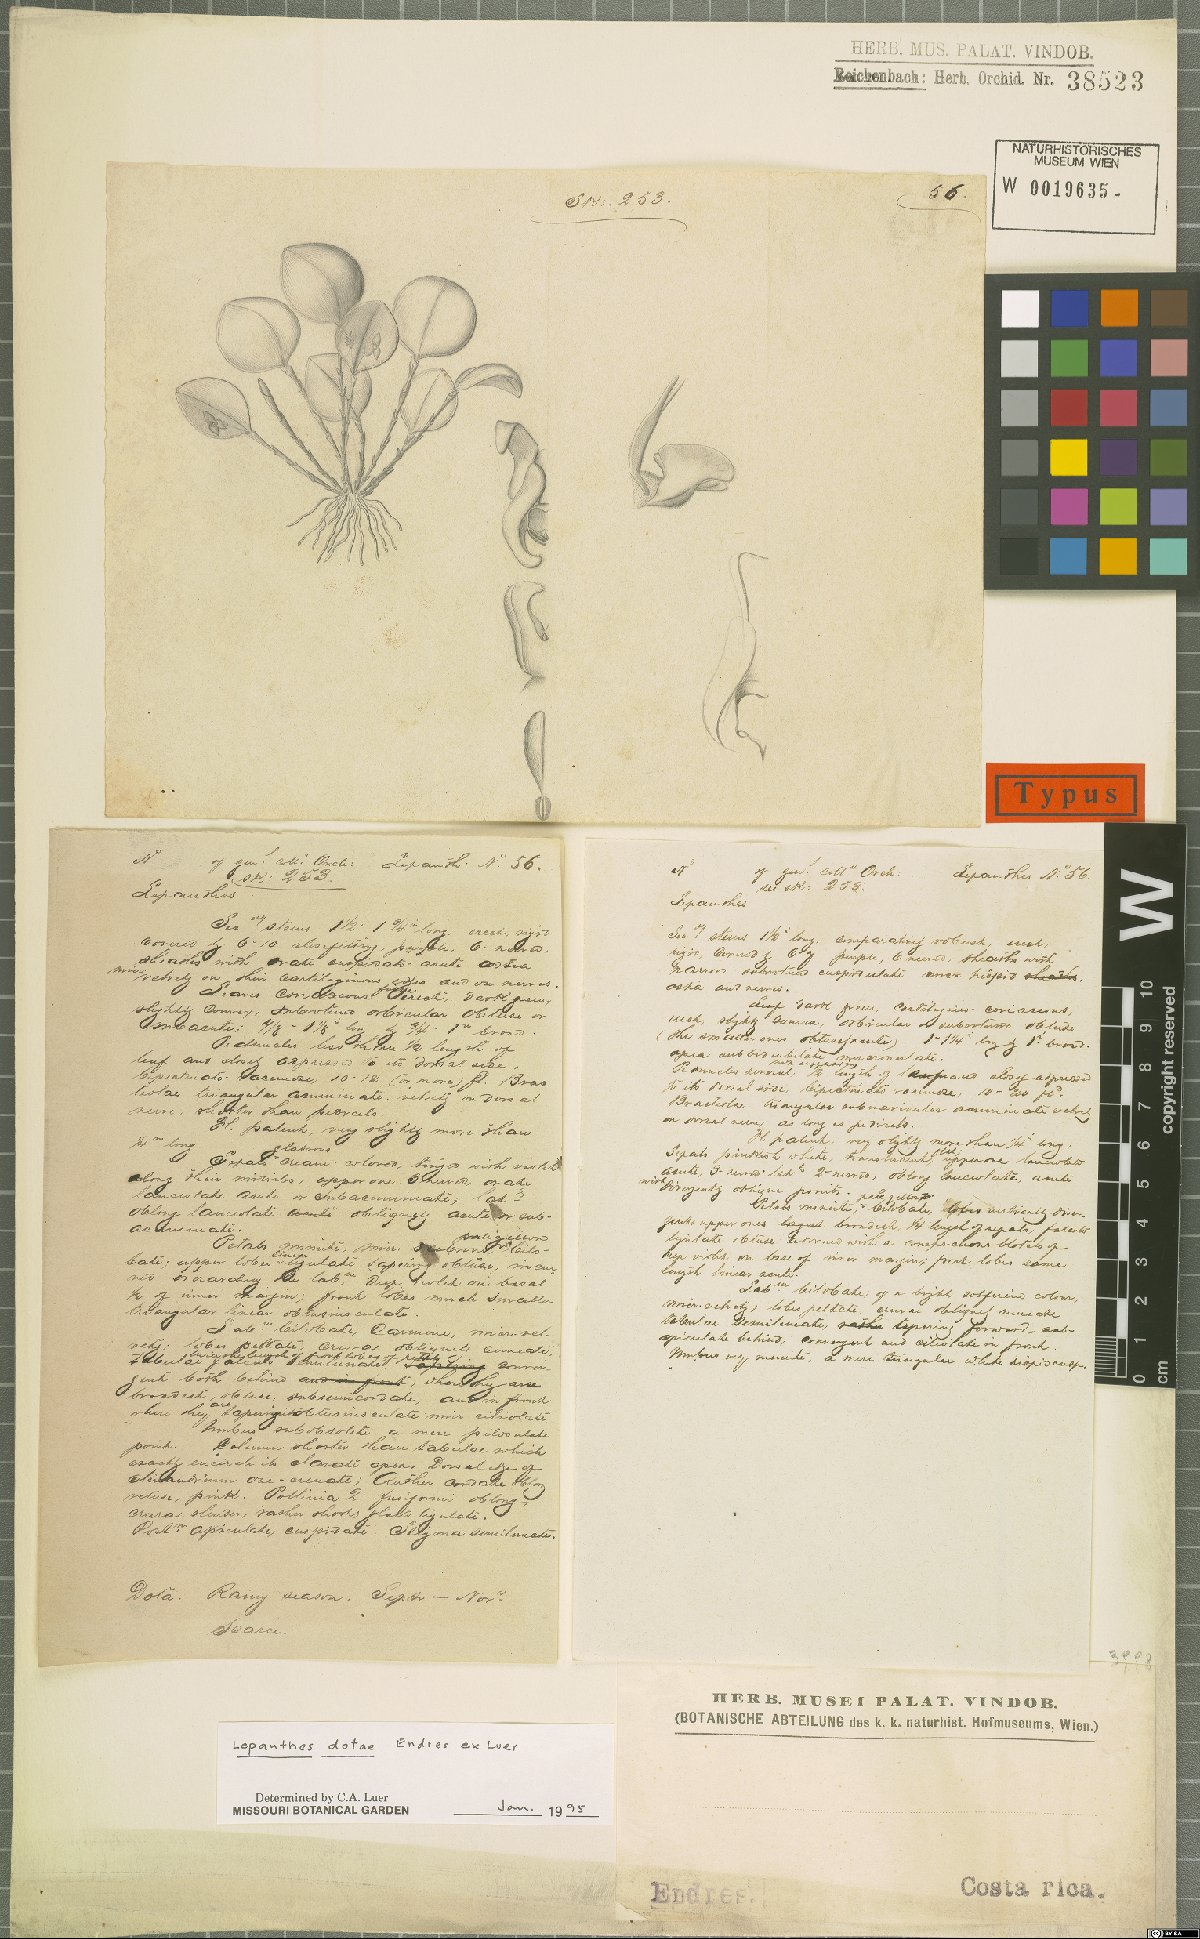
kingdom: Plantae
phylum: Tracheophyta
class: Liliopsida
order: Asparagales
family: Orchidaceae
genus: Lepanthes
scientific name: Lepanthes dotae
